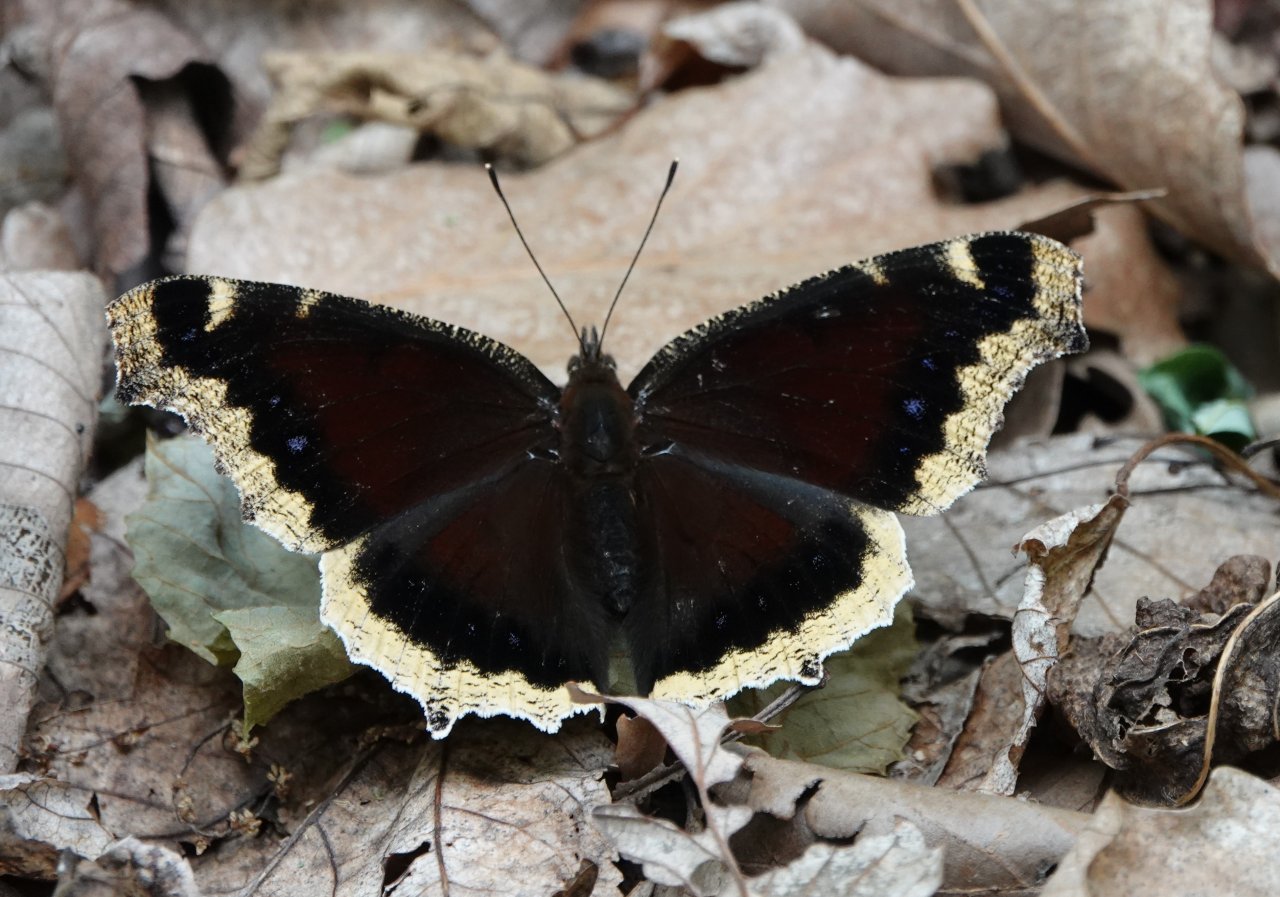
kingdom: Animalia
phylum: Arthropoda
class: Insecta
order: Lepidoptera
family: Nymphalidae
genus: Nymphalis
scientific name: Nymphalis antiopa
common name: Mourning Cloak
